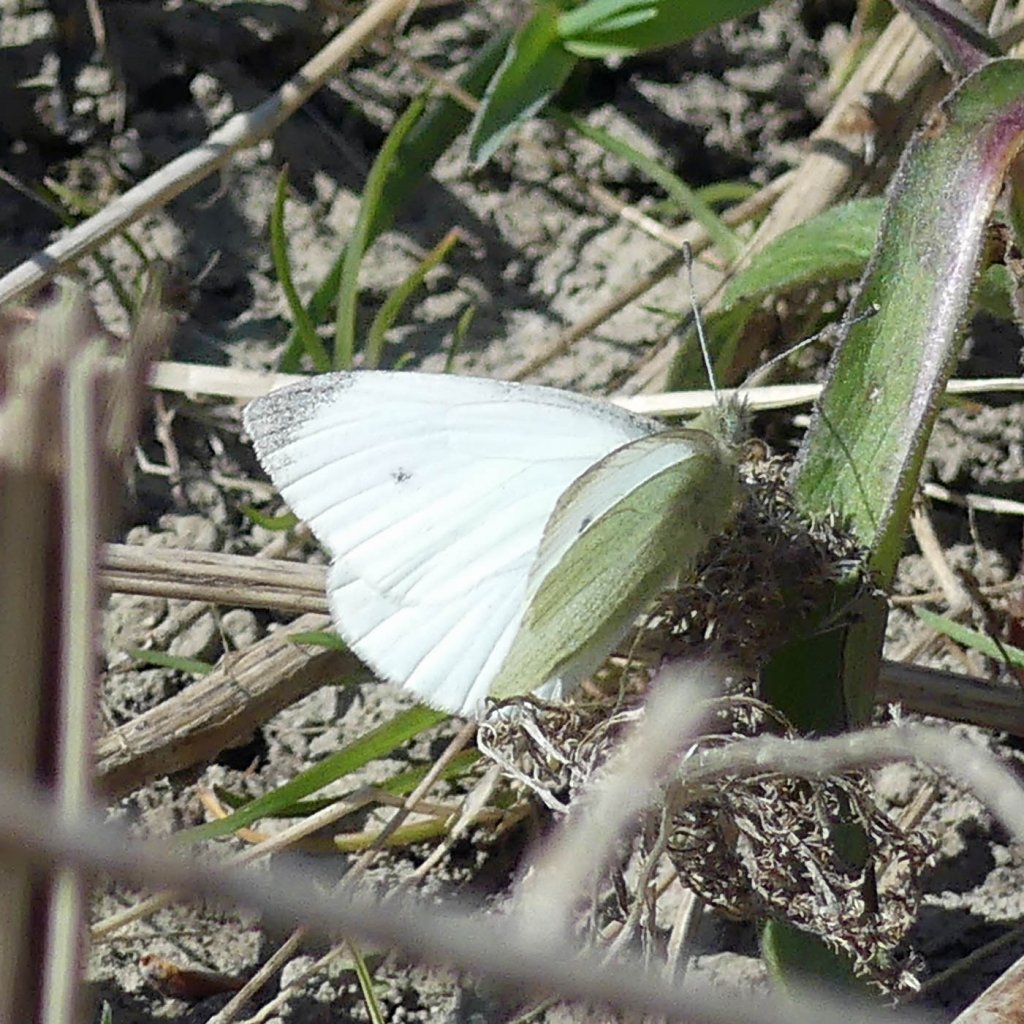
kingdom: Animalia
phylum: Arthropoda
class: Insecta
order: Lepidoptera
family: Pieridae
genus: Pieris
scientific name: Pieris rapae
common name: Cabbage White
